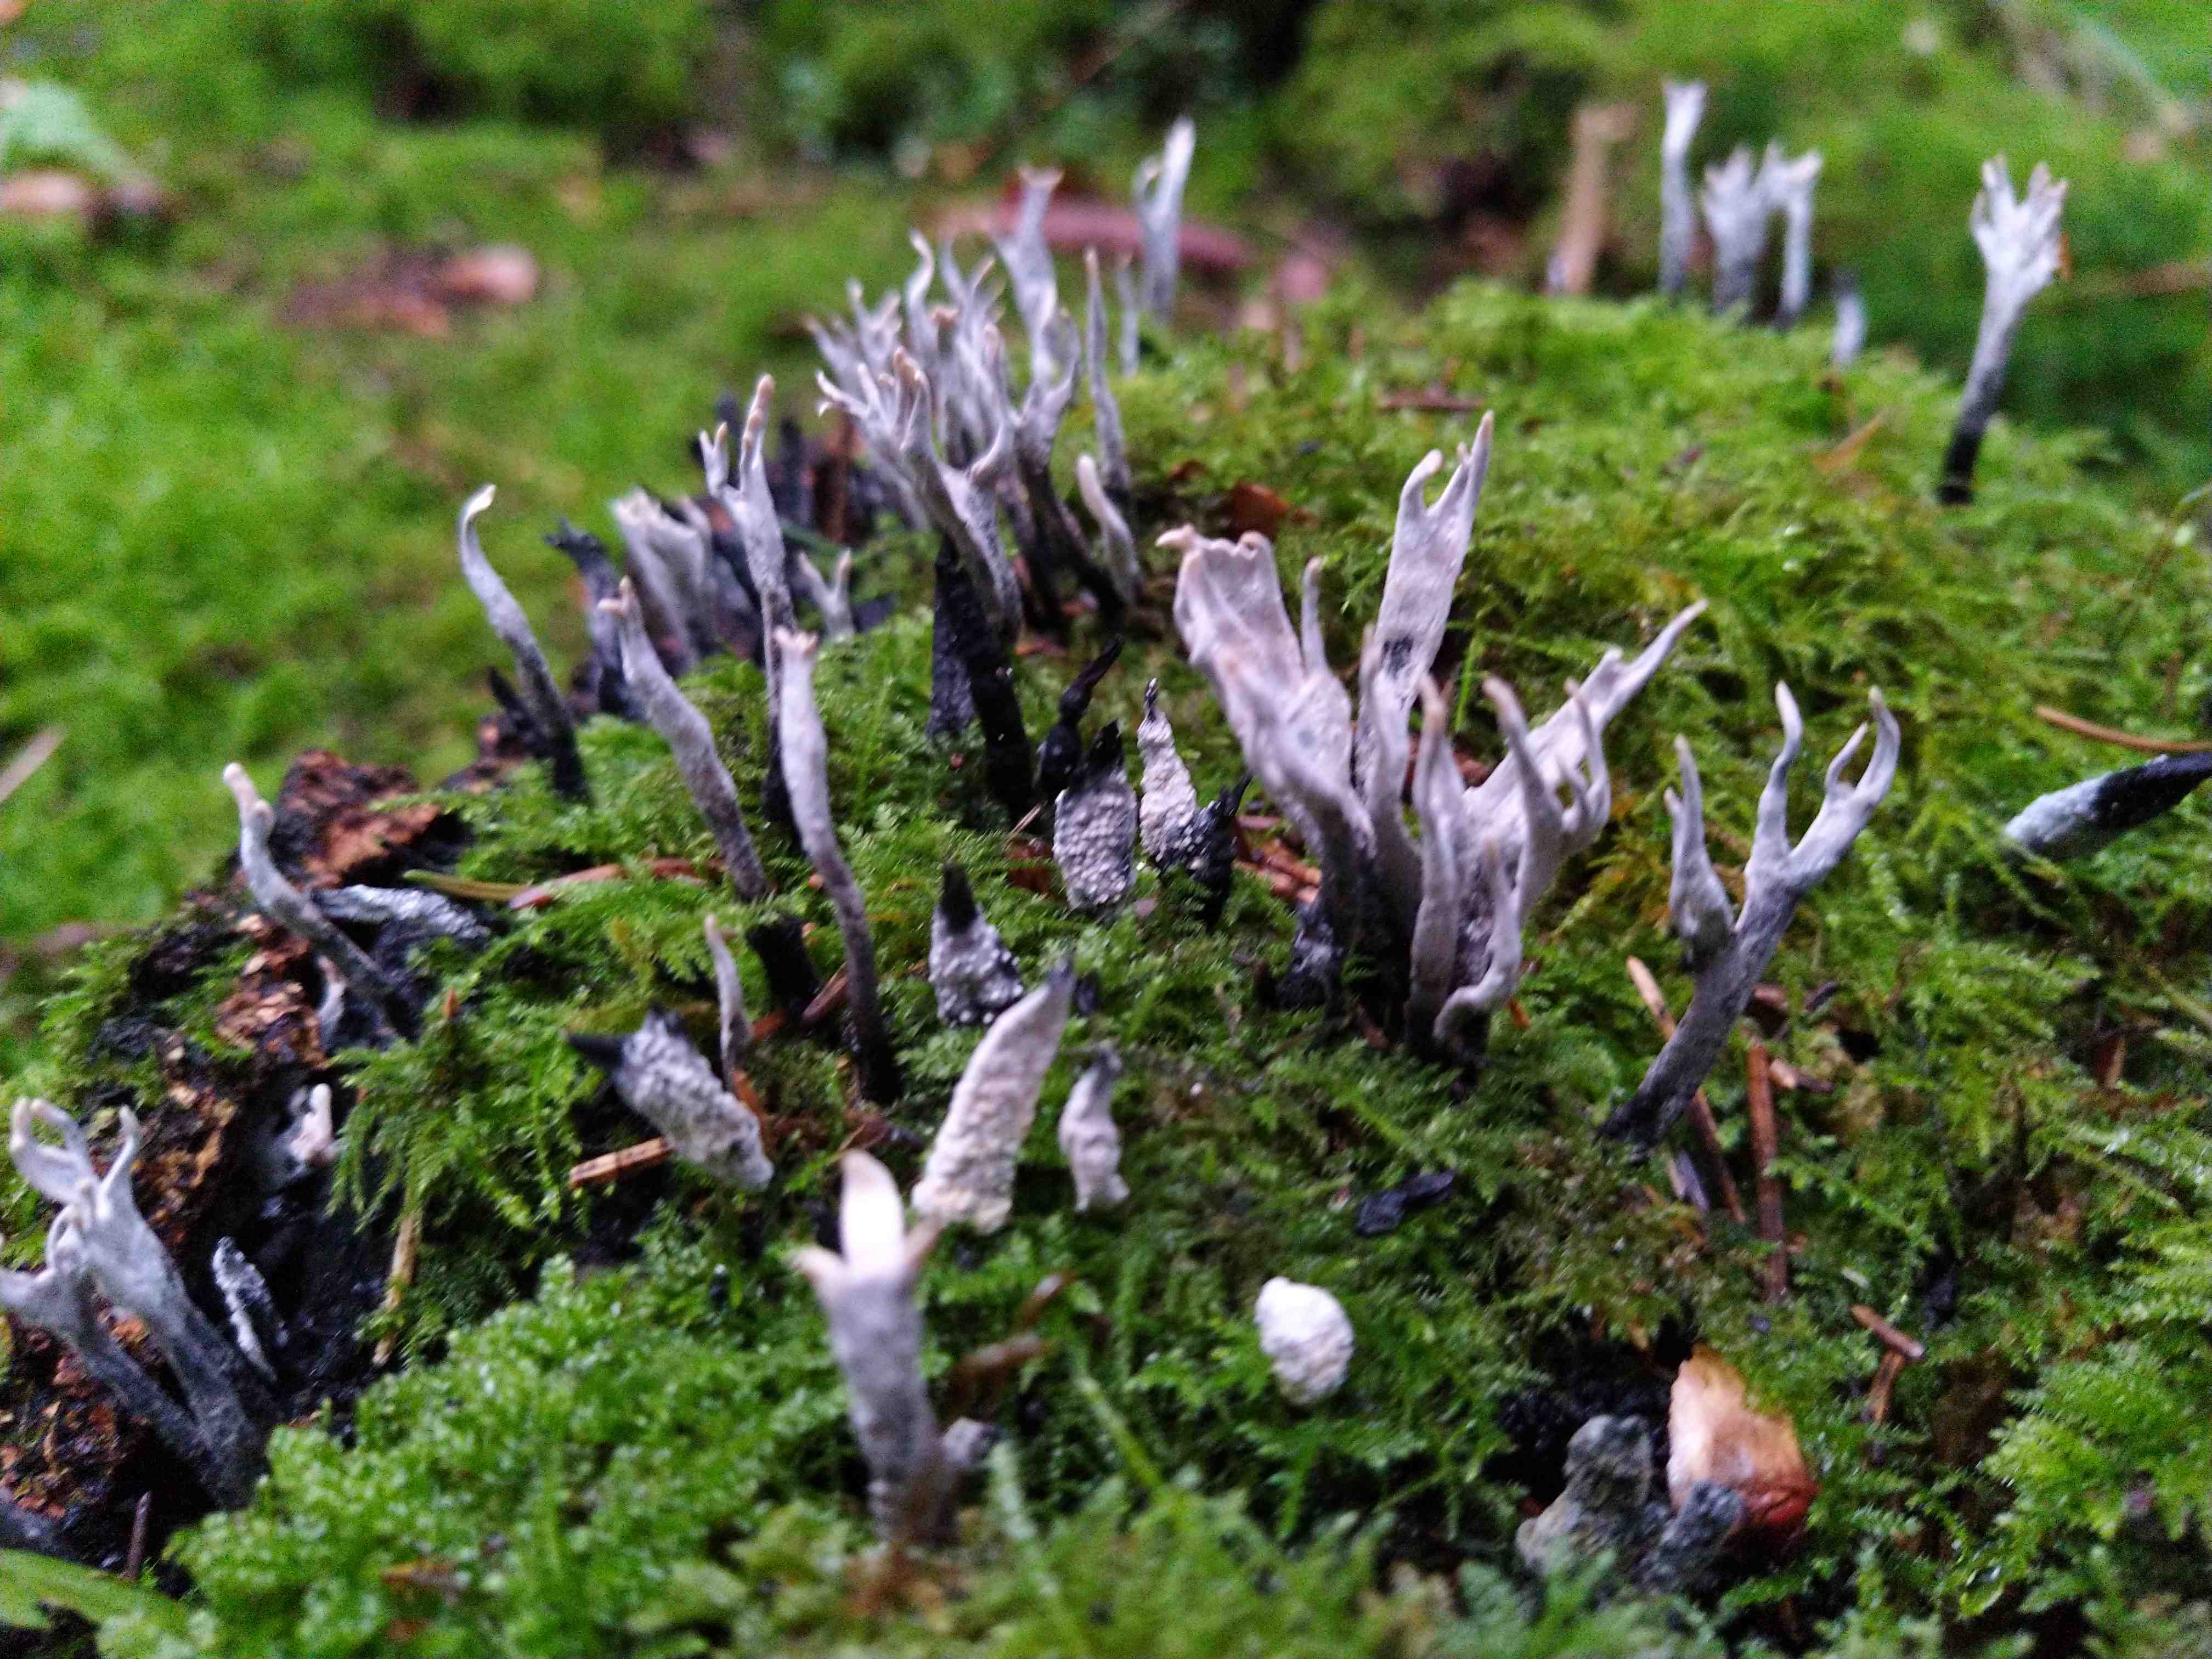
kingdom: Fungi
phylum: Ascomycota
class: Sordariomycetes
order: Xylariales
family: Xylariaceae
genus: Xylaria
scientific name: Xylaria hypoxylon
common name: grenet stødsvamp
